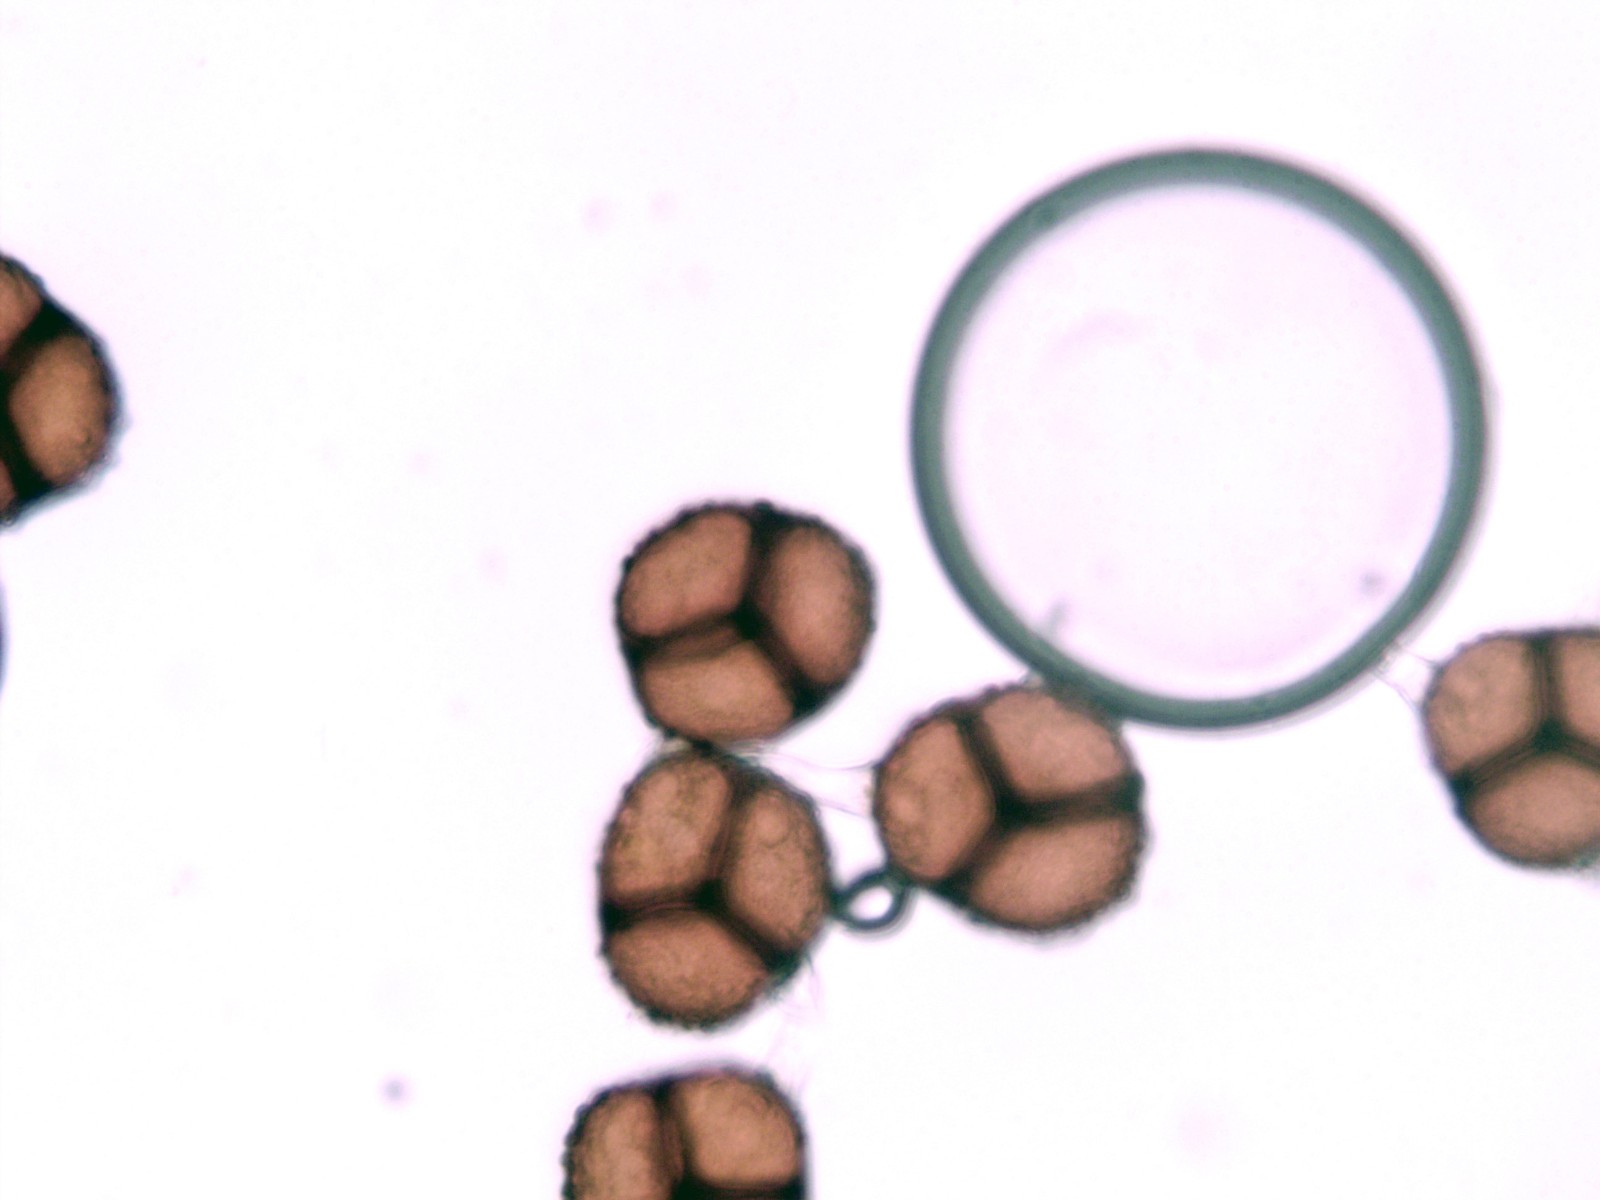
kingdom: Fungi
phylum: Basidiomycota
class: Pucciniomycetes
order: Pucciniales
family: Raveneliaceae
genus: Triphragmium
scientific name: Triphragmium ulmariae
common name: almindelig mjødurtrust
